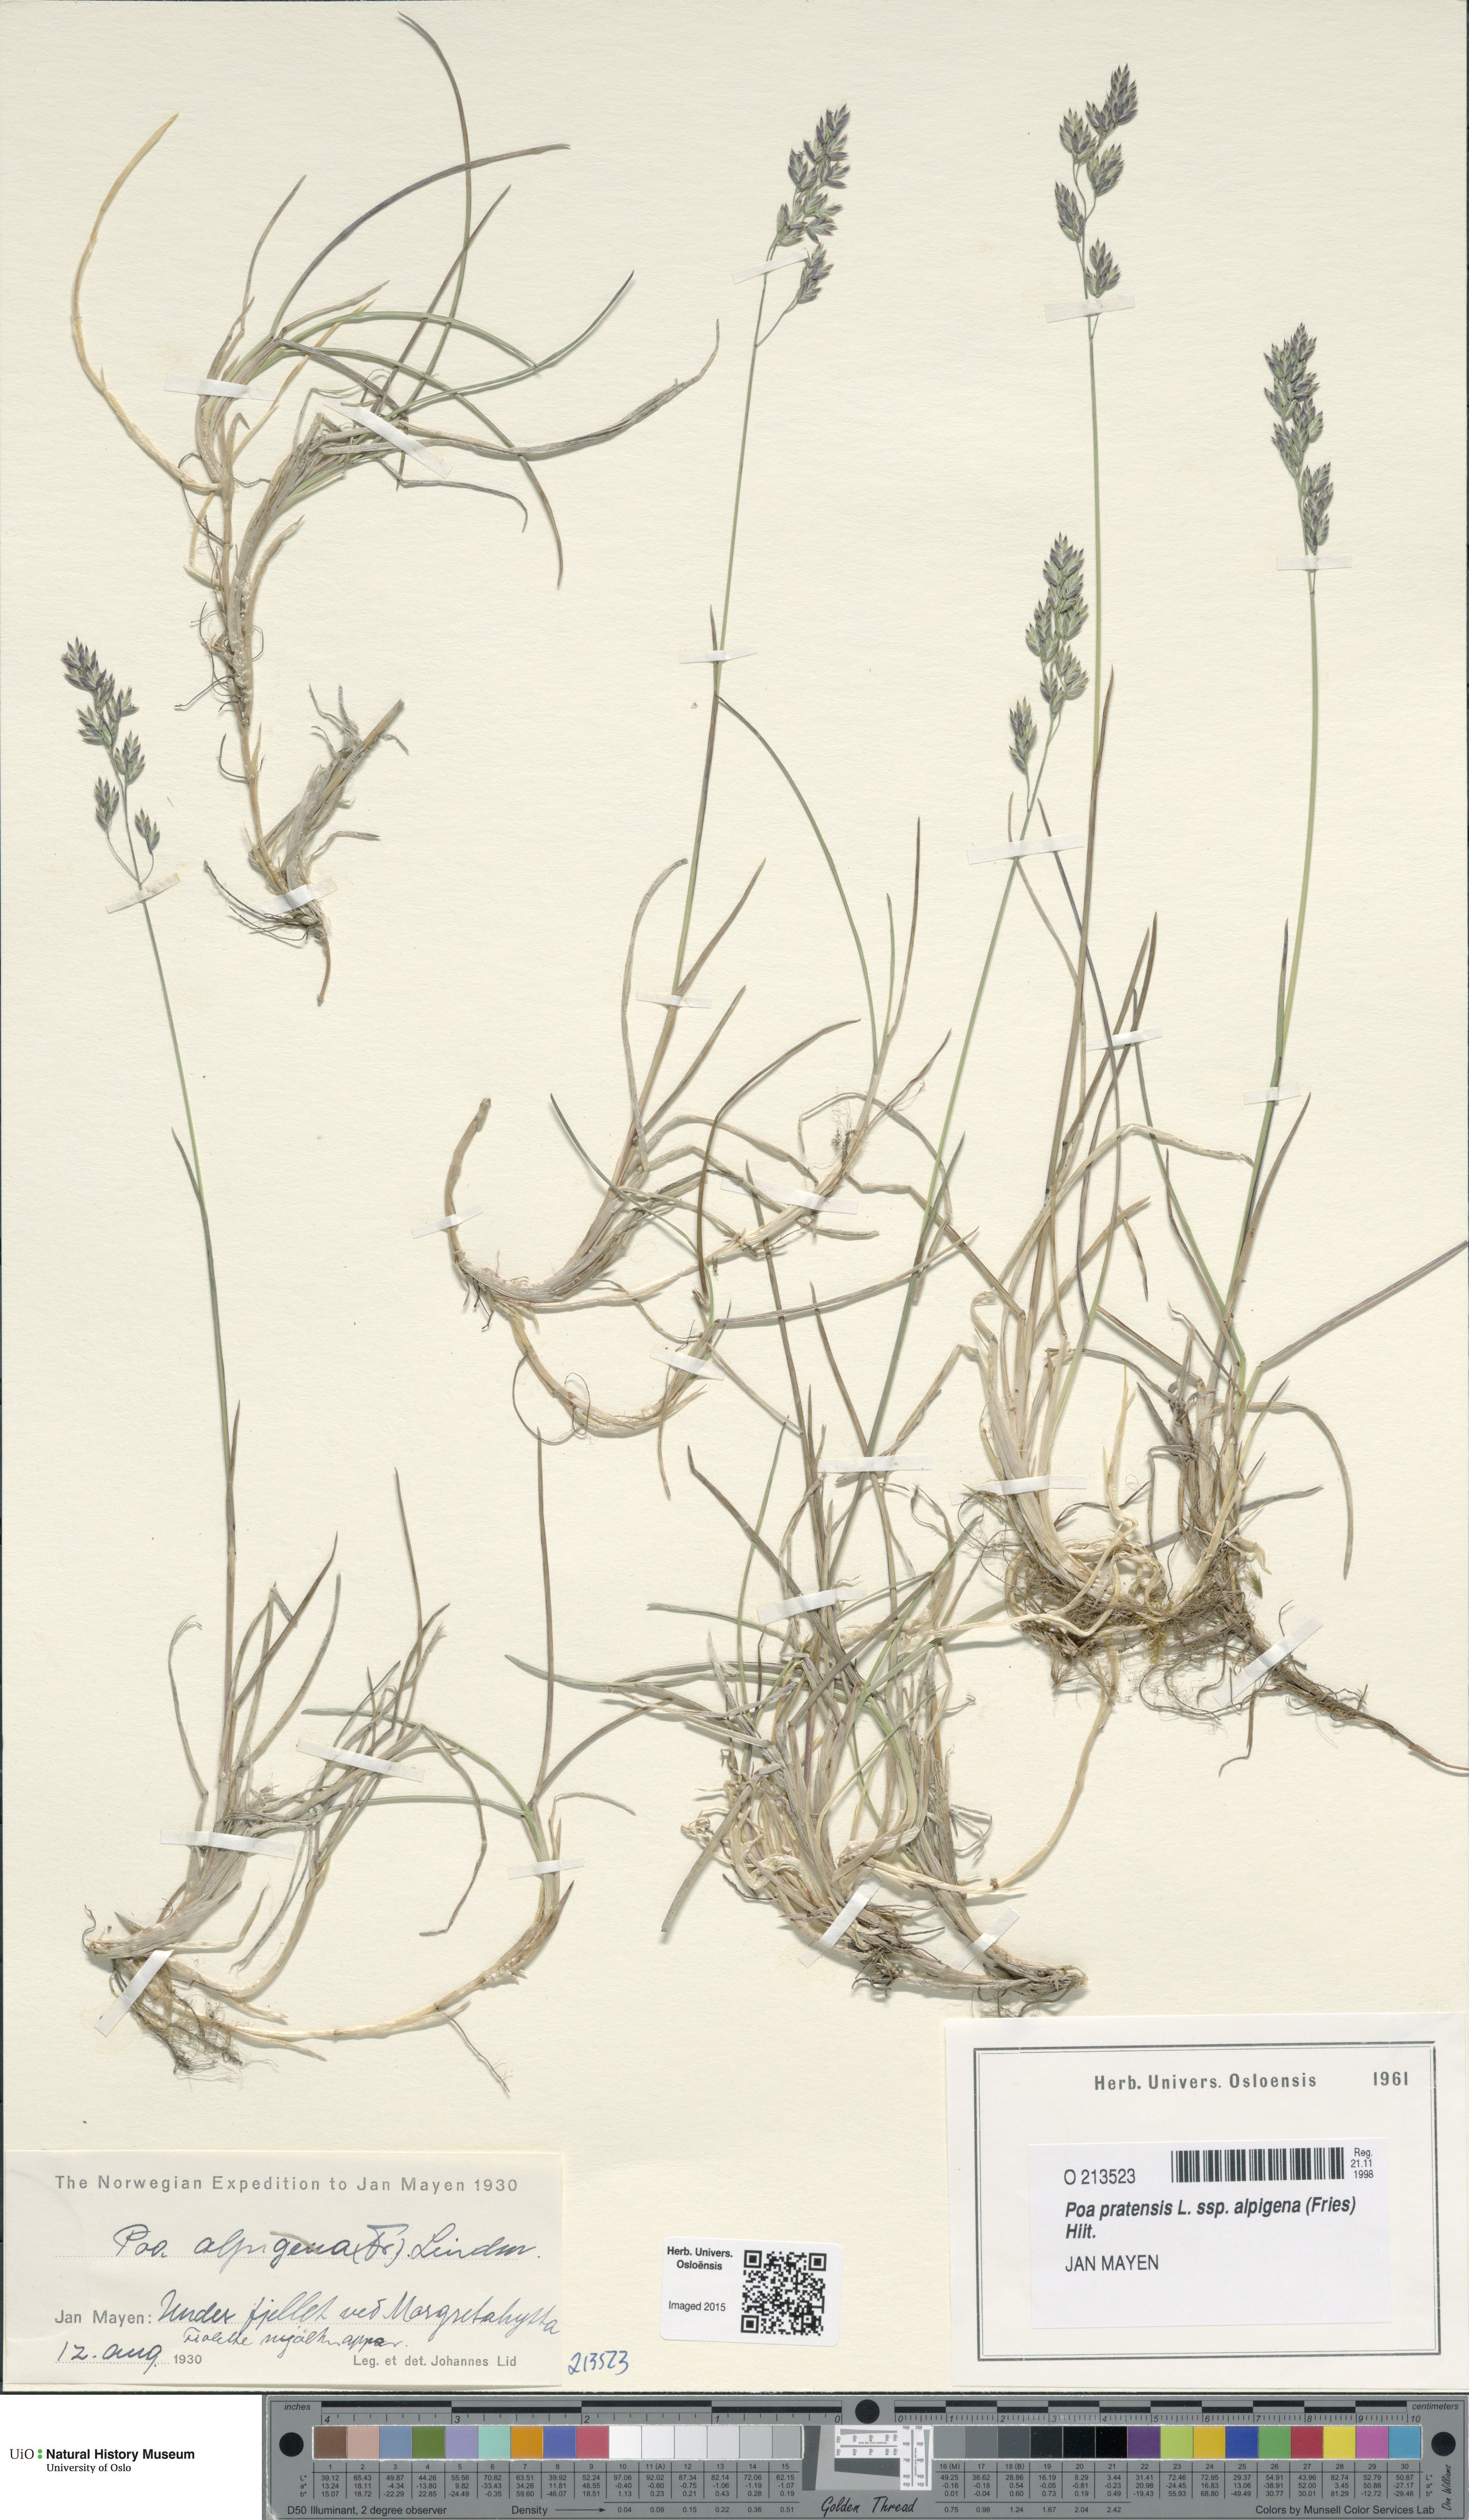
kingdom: Plantae
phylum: Tracheophyta
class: Liliopsida
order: Poales
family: Poaceae
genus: Poa
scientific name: Poa alpigena
